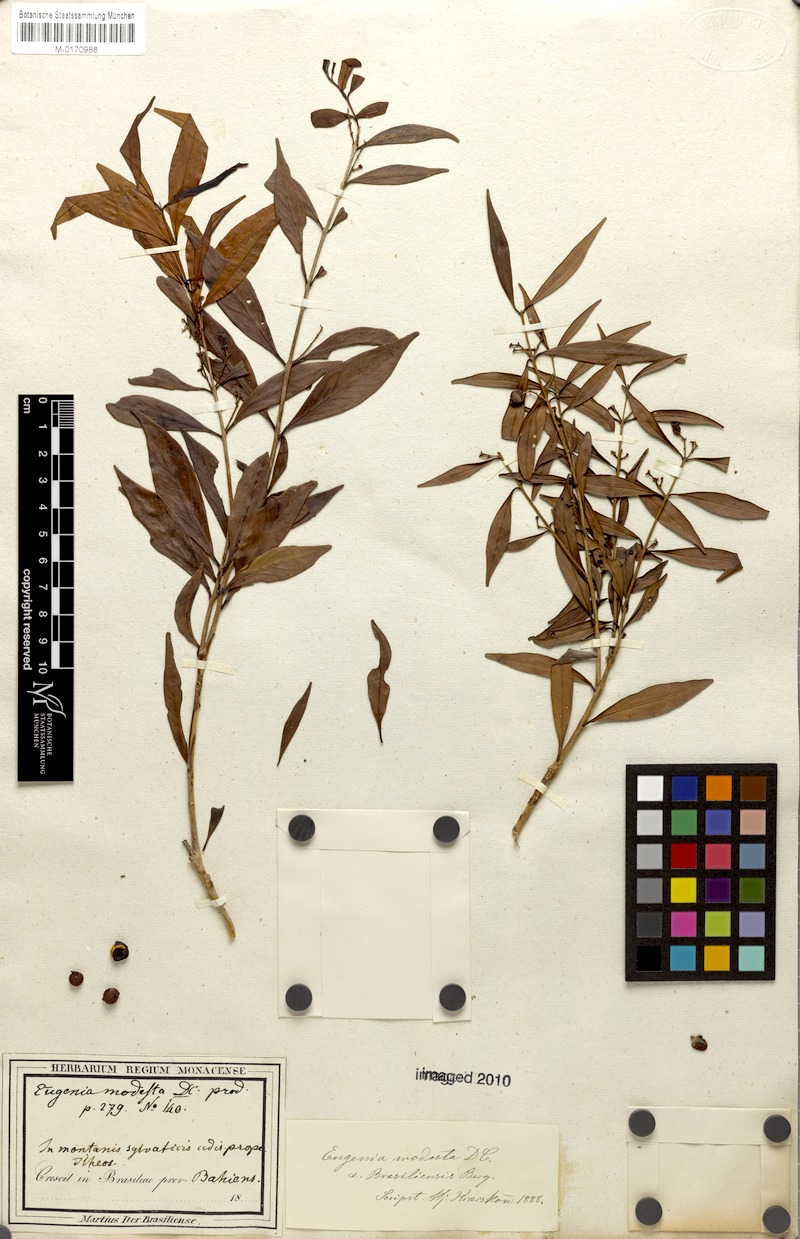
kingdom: Plantae
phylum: Tracheophyta
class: Magnoliopsida
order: Myrtales
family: Myrtaceae
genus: Eugenia
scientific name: Eugenia modesta
